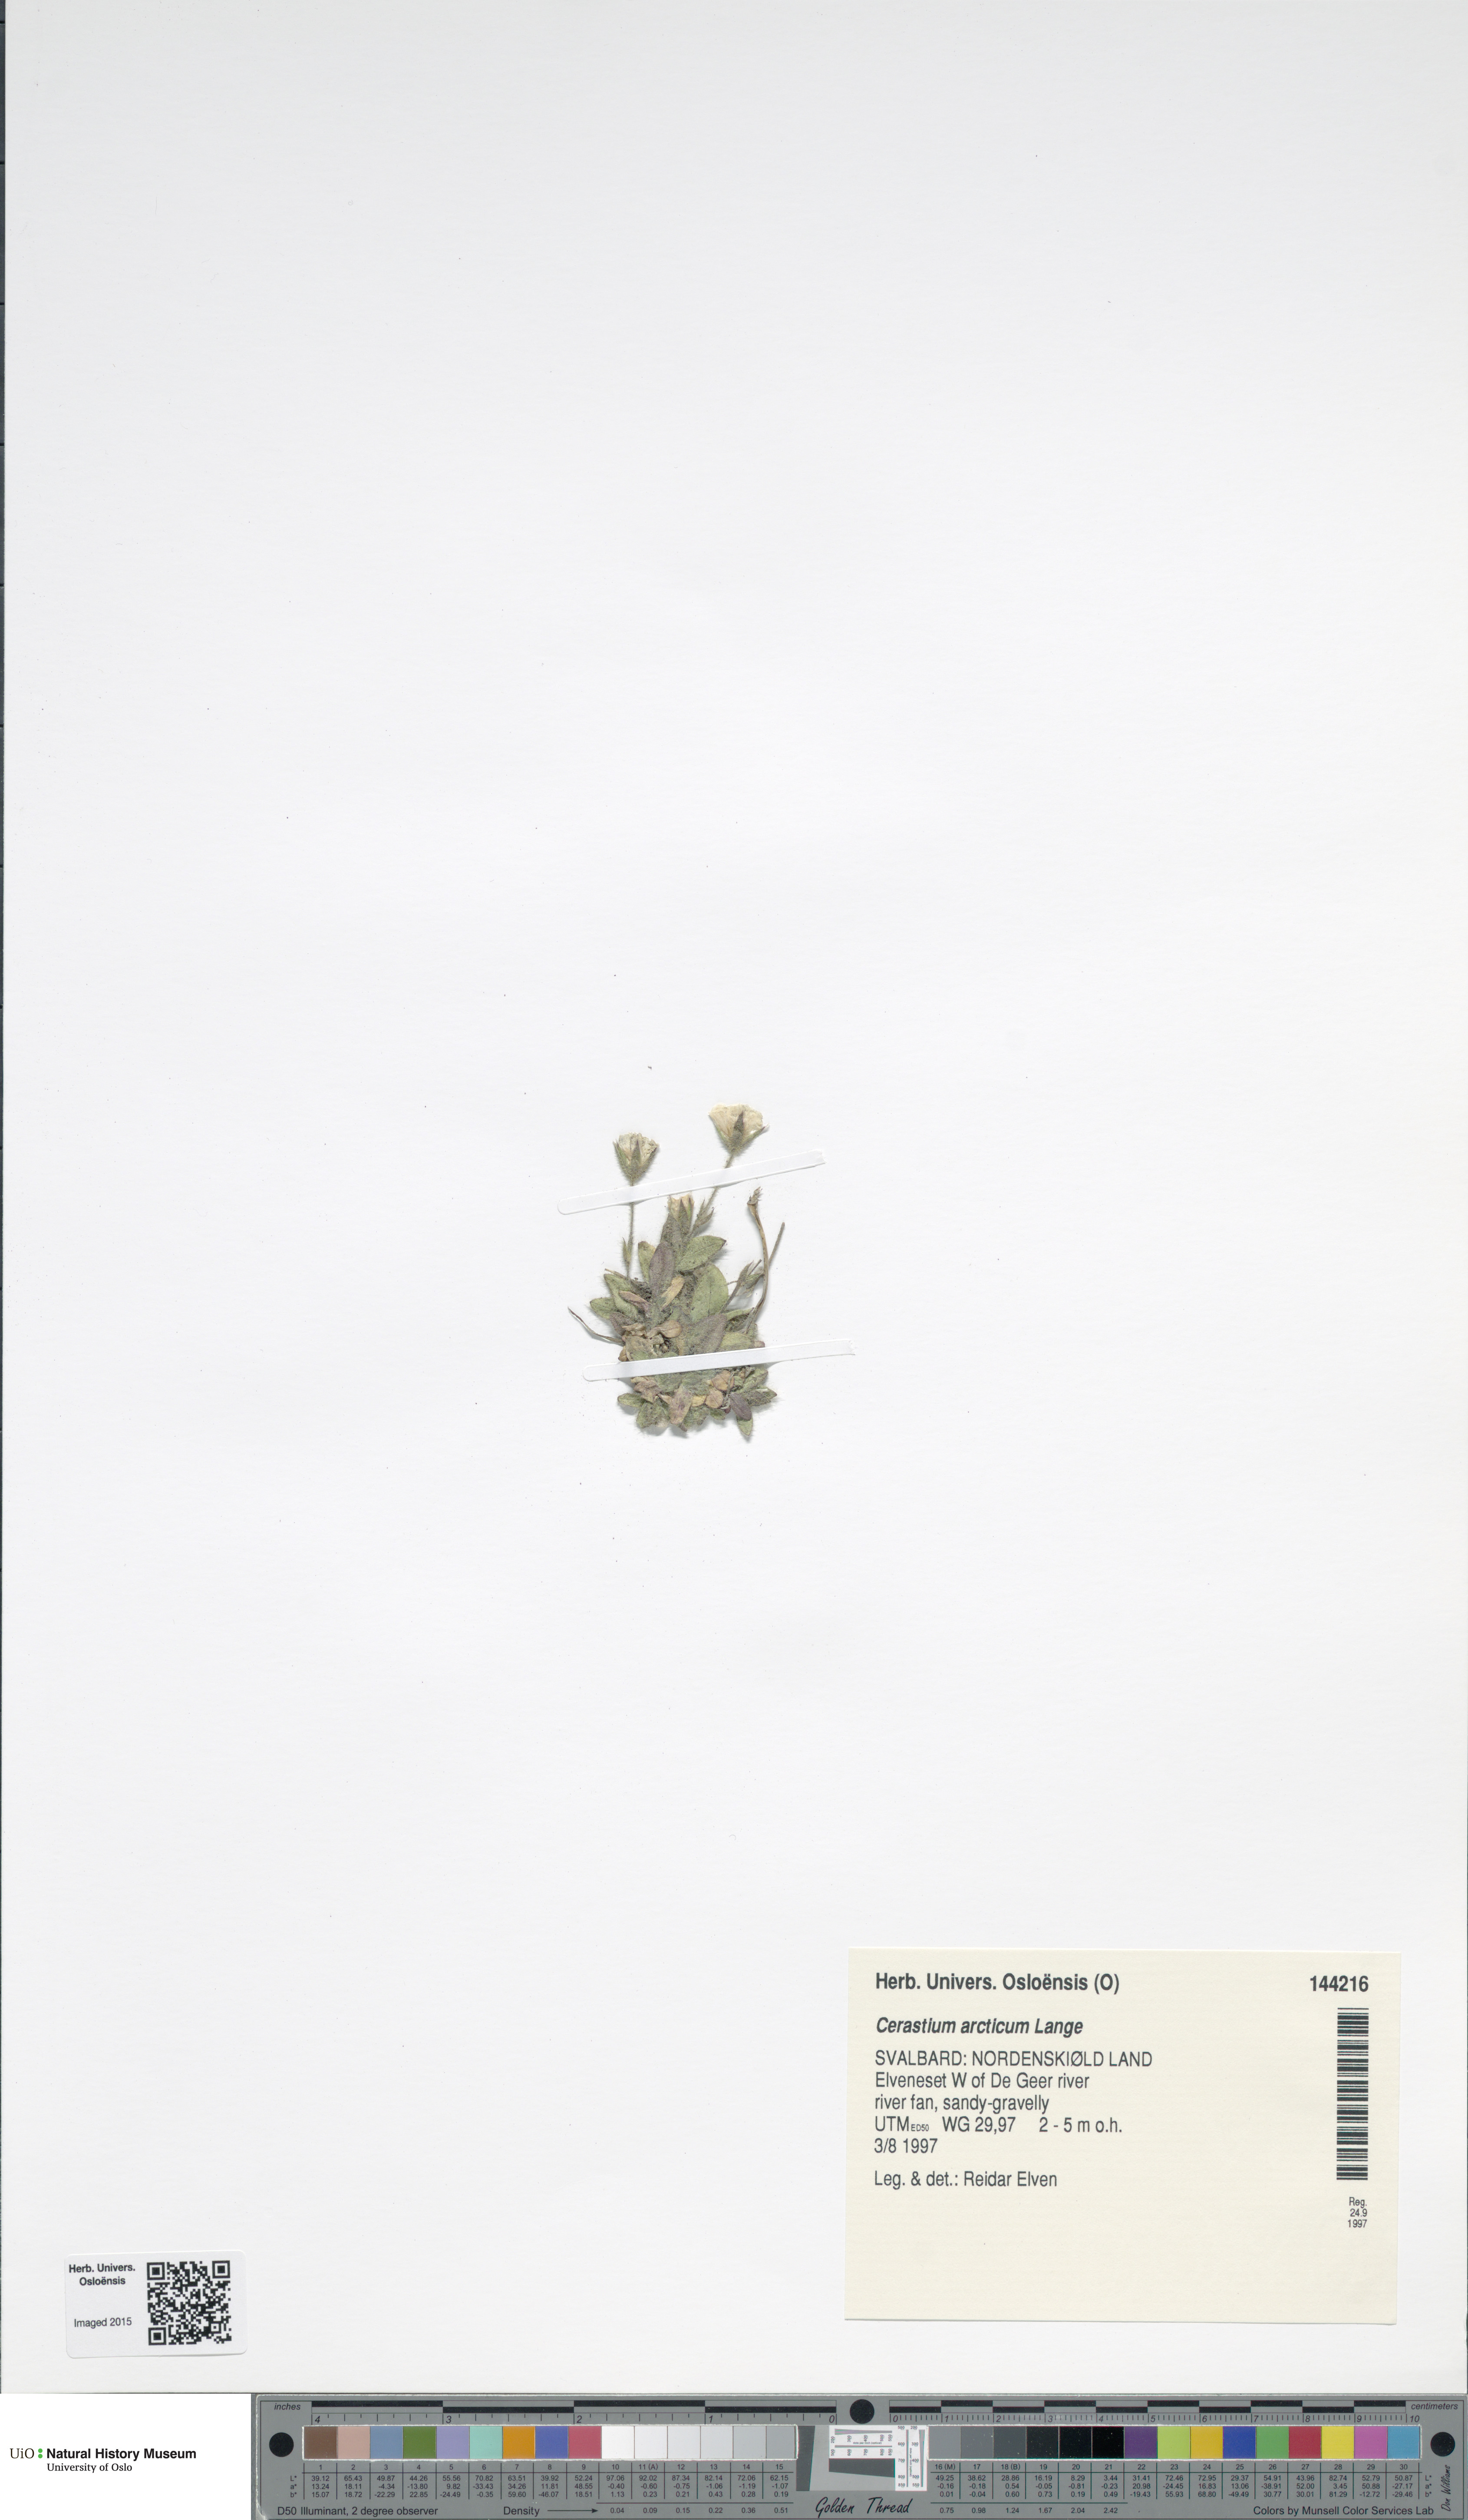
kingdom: Plantae
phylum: Tracheophyta
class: Magnoliopsida
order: Caryophyllales
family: Caryophyllaceae
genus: Cerastium
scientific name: Cerastium arcticum
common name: Arctic mouse-ear
